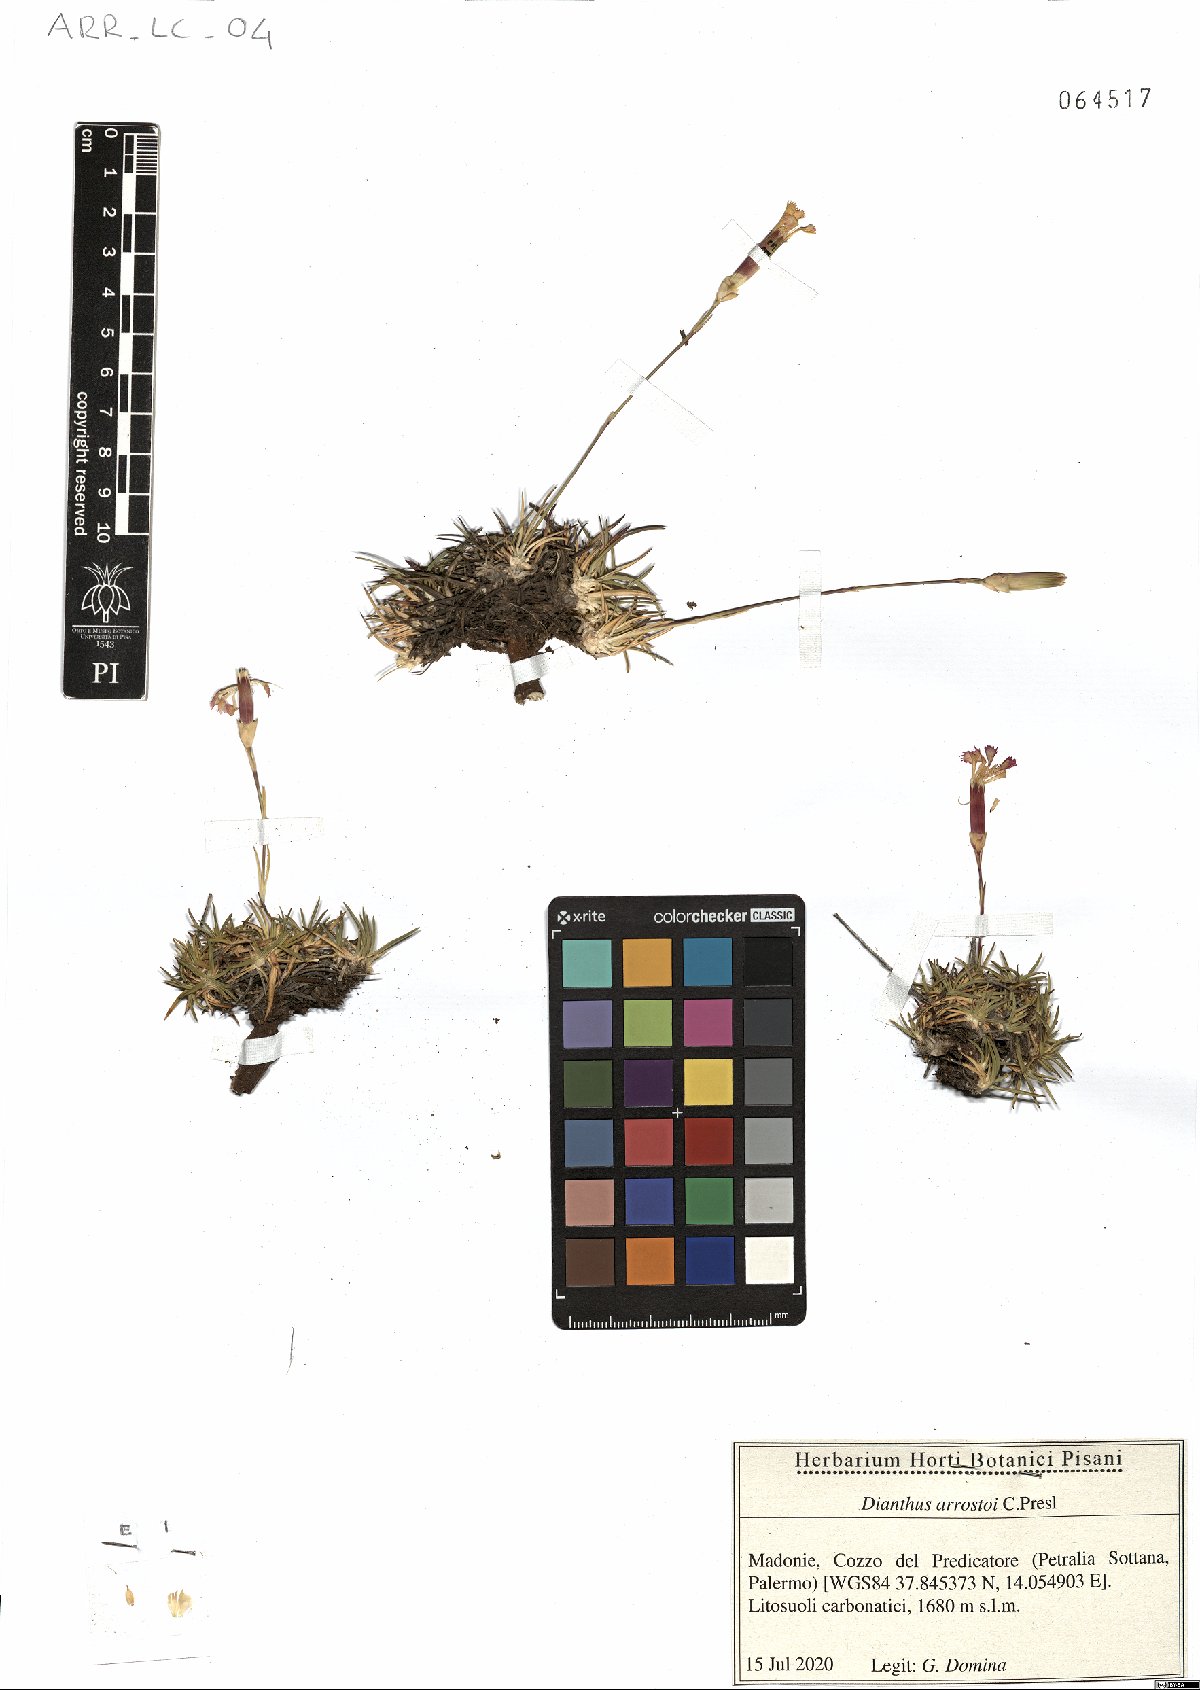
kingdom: Plantae
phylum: Tracheophyta
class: Magnoliopsida
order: Caryophyllales
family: Caryophyllaceae
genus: Dianthus
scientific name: Dianthus arrostoi
